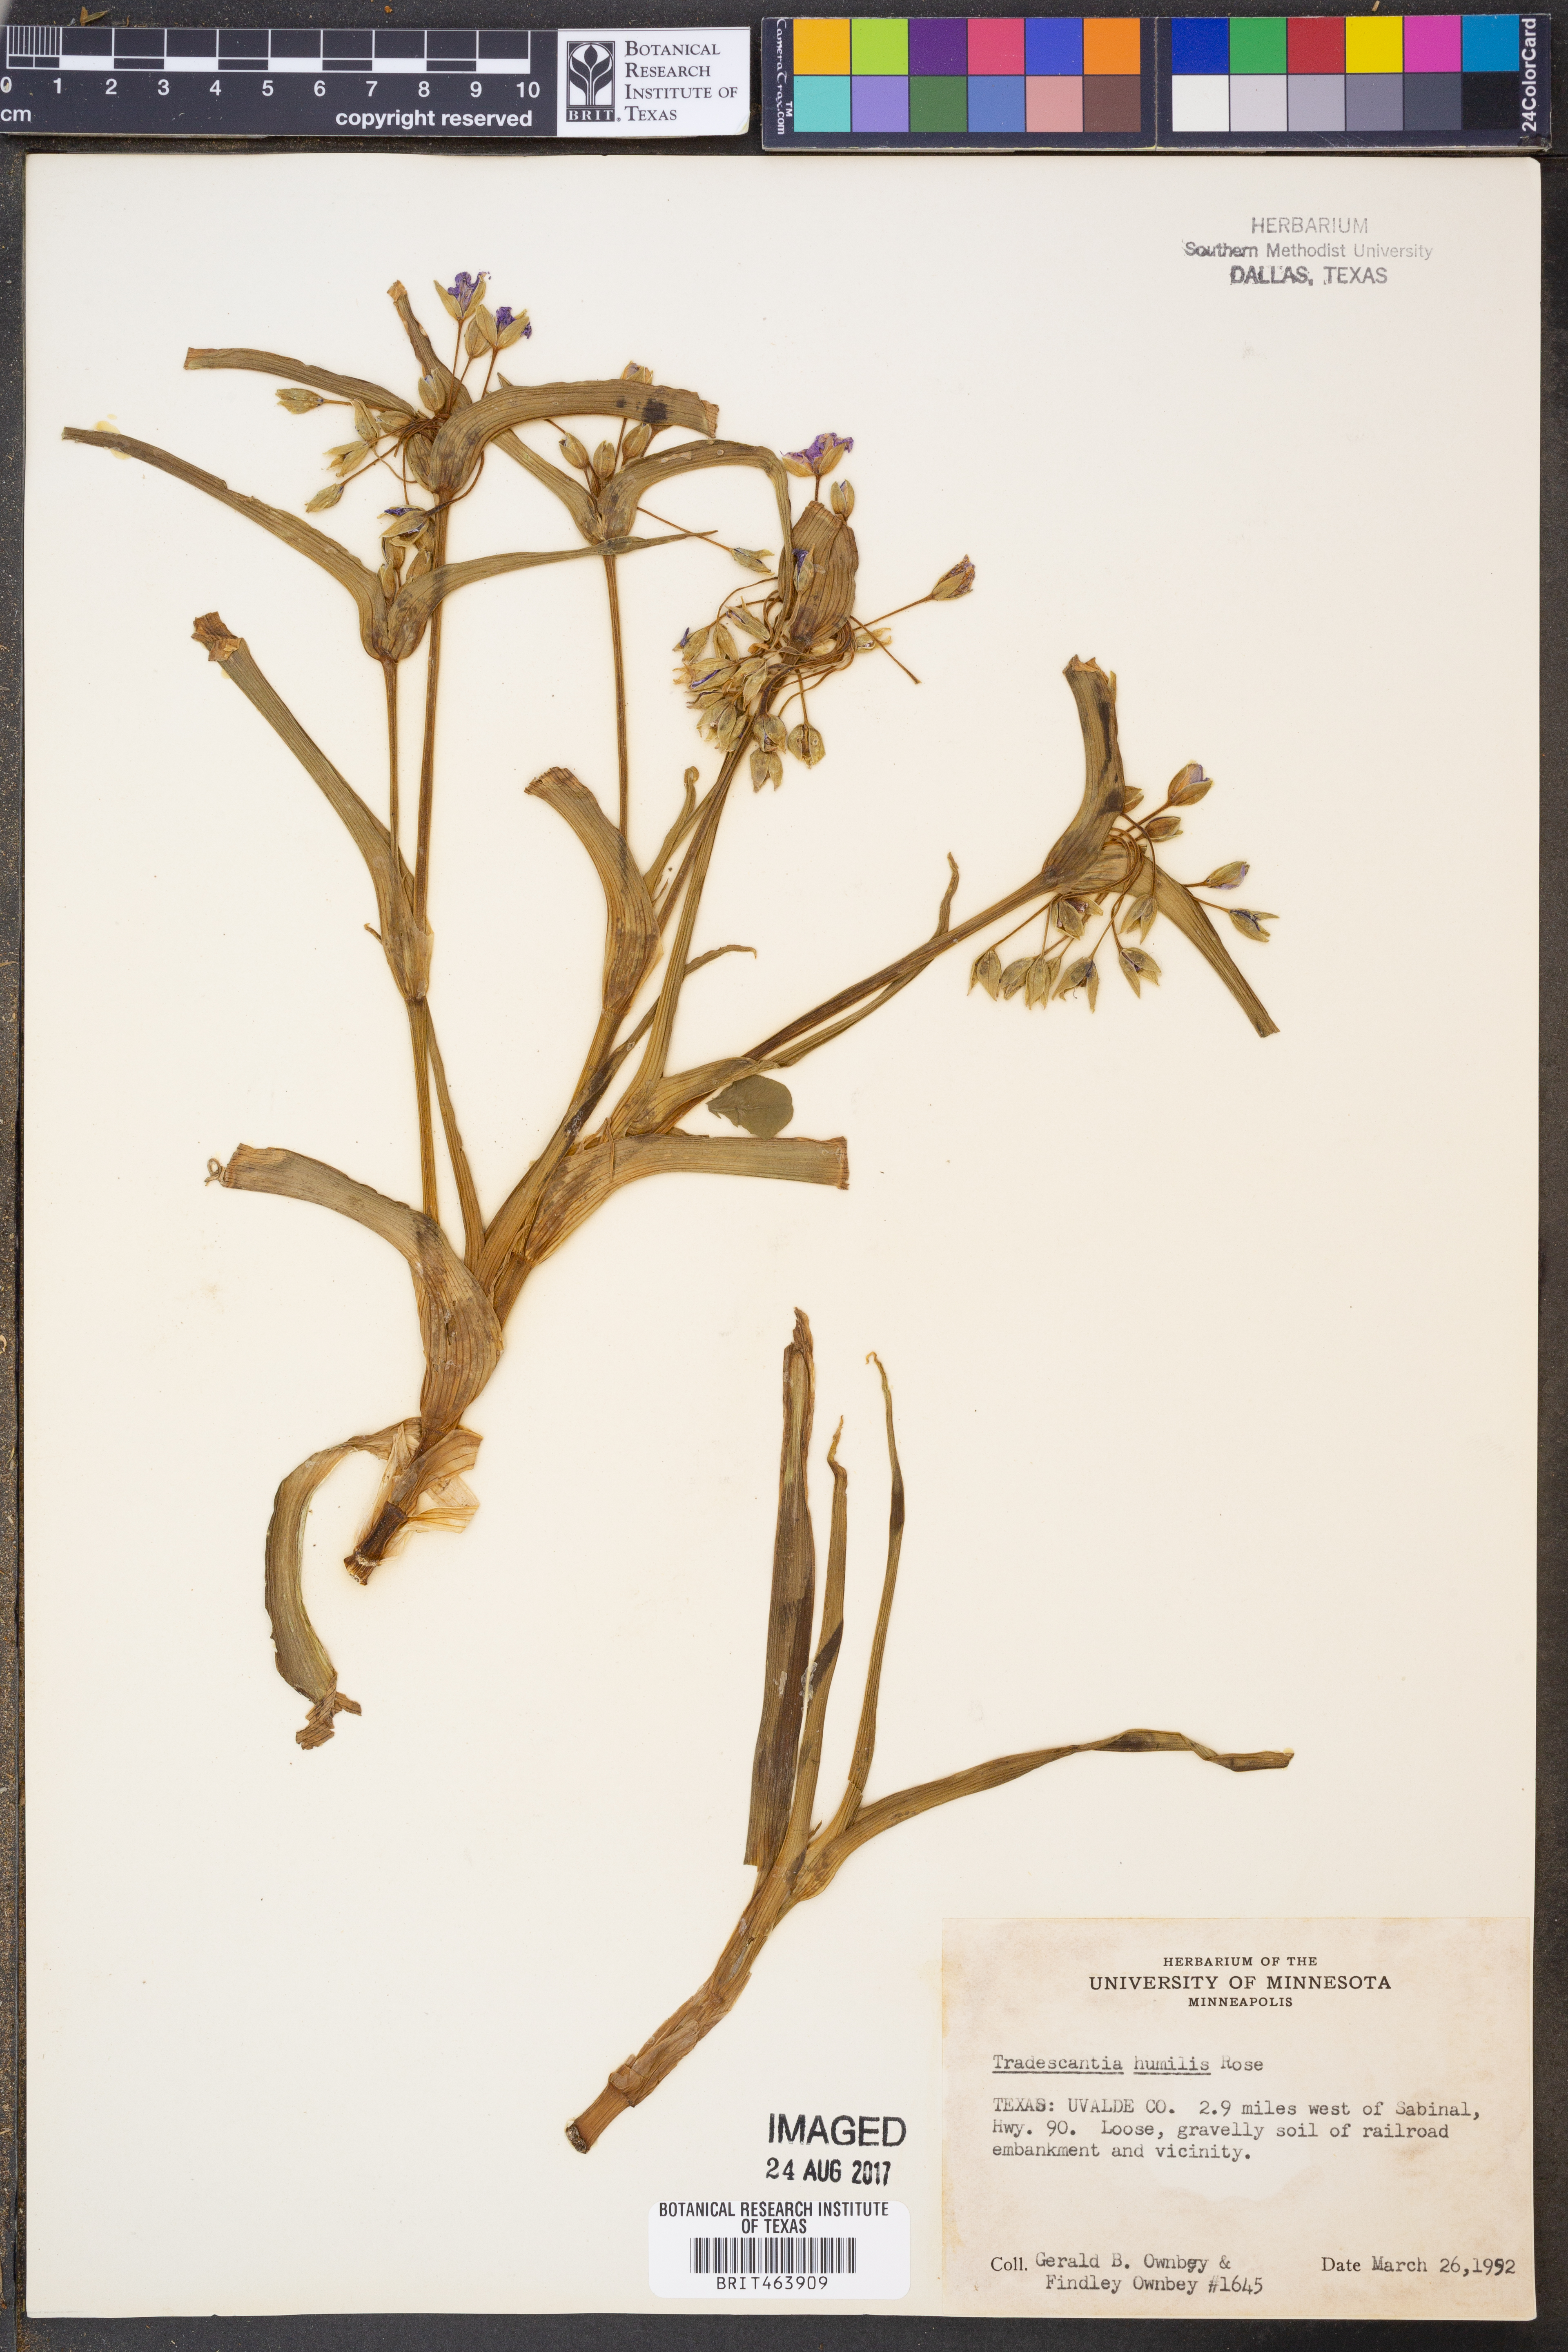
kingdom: Plantae
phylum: Tracheophyta
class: Liliopsida
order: Commelinales
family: Commelinaceae
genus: Tradescantia
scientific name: Tradescantia humilis
